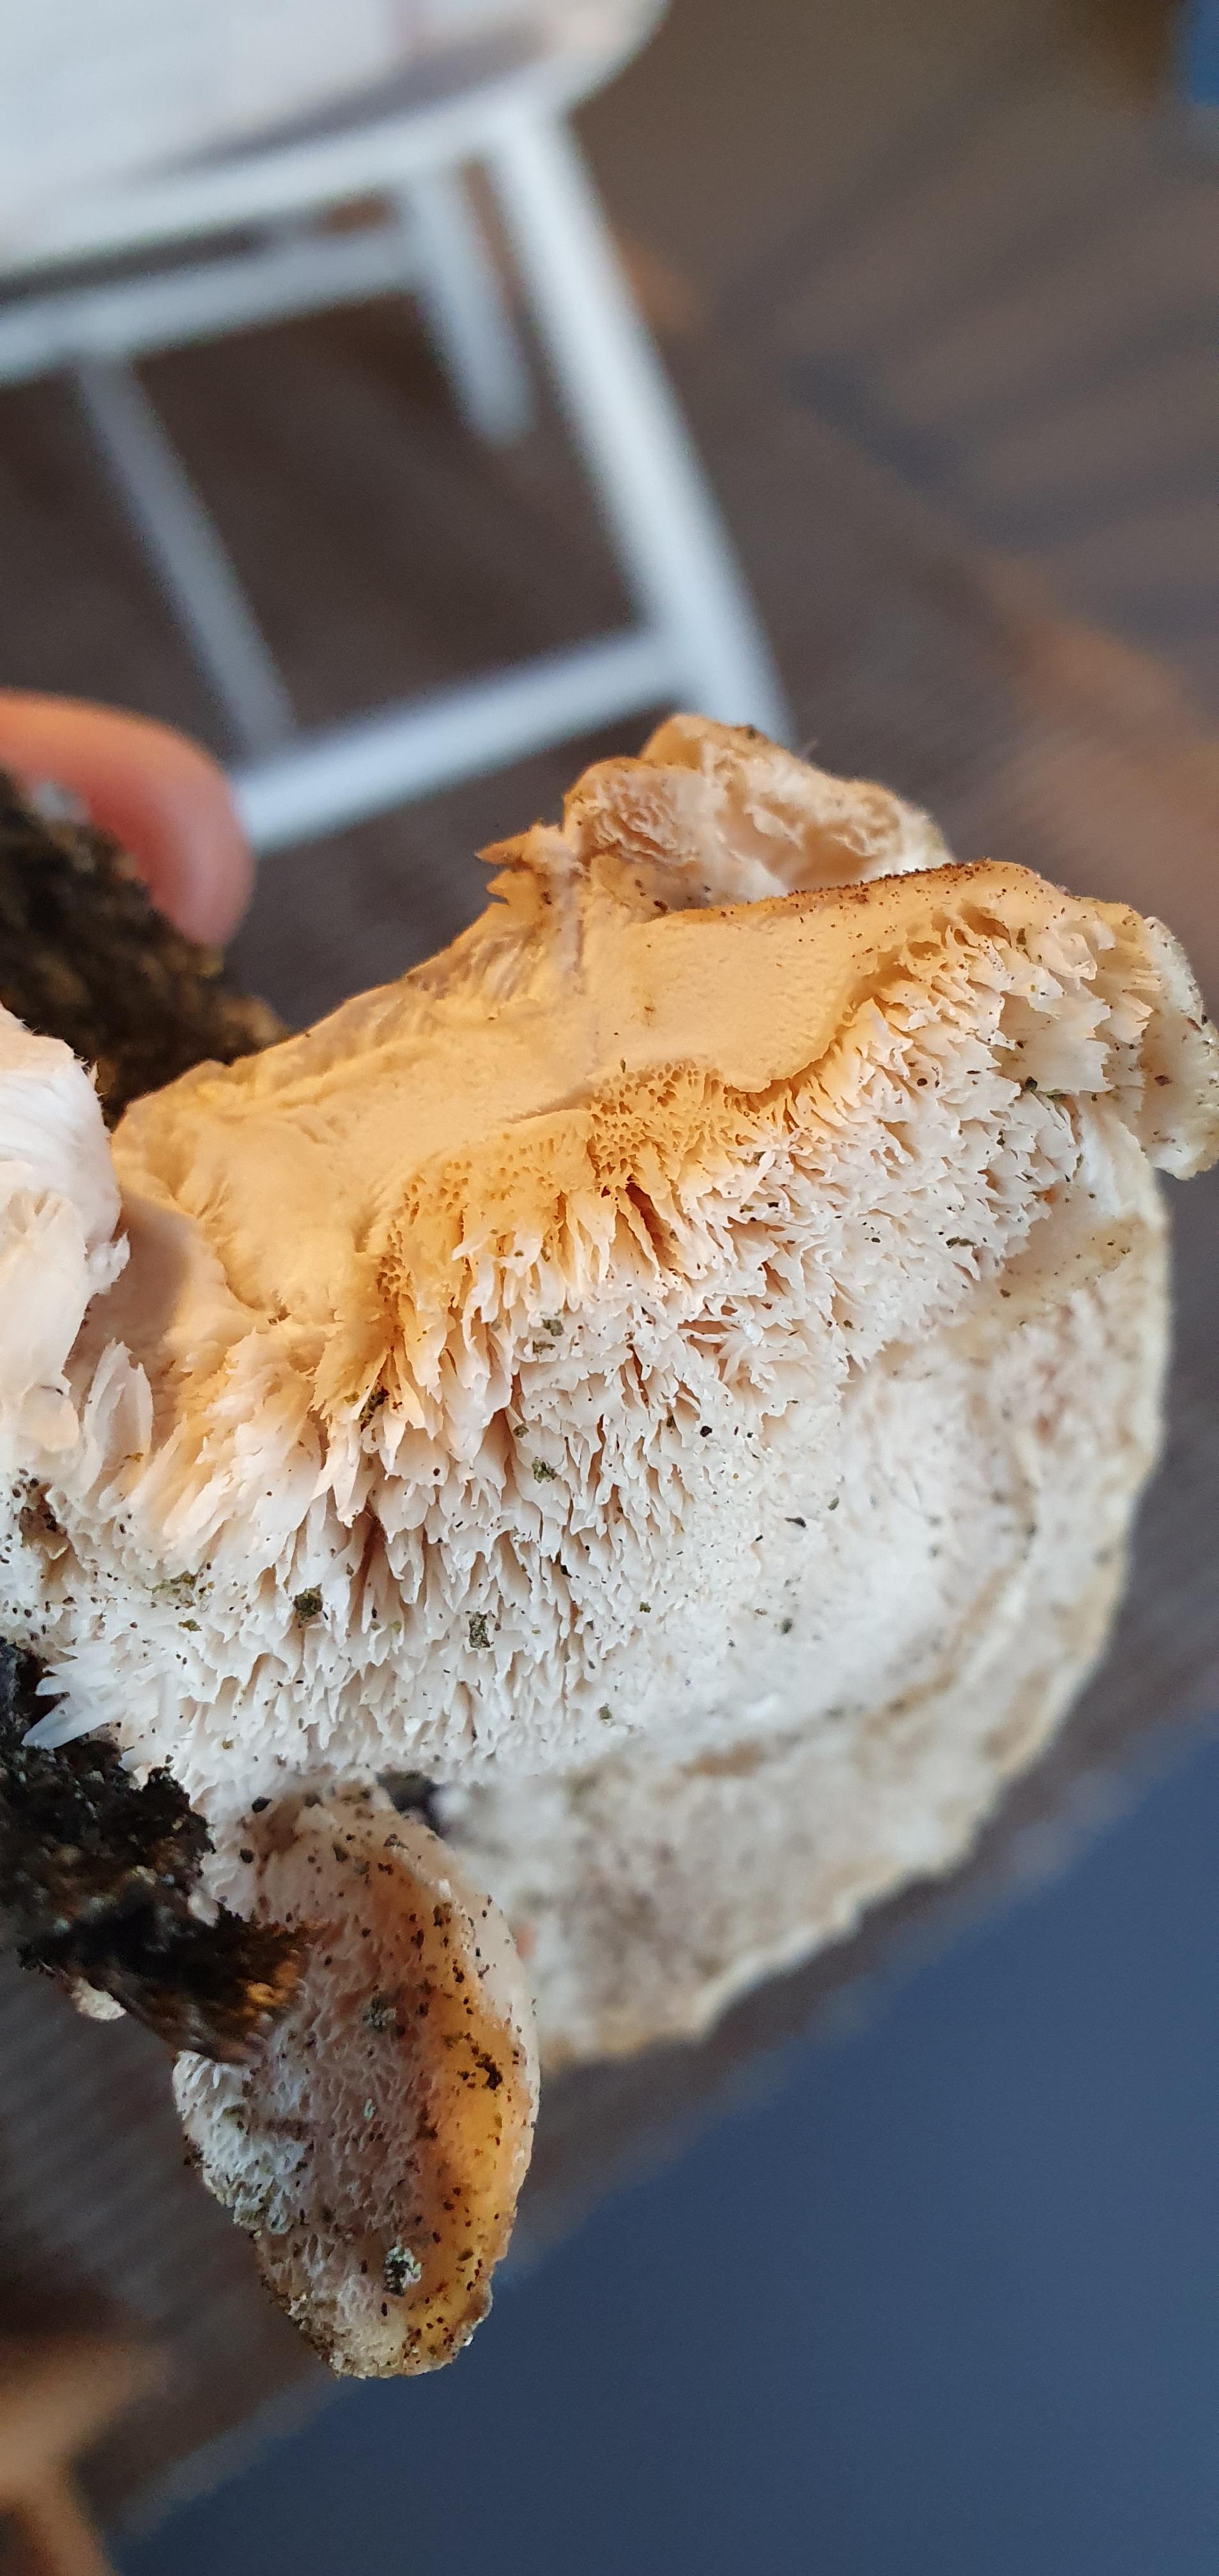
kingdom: Fungi
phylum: Basidiomycota
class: Agaricomycetes
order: Polyporales
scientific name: Polyporales
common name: poresvampordenen
